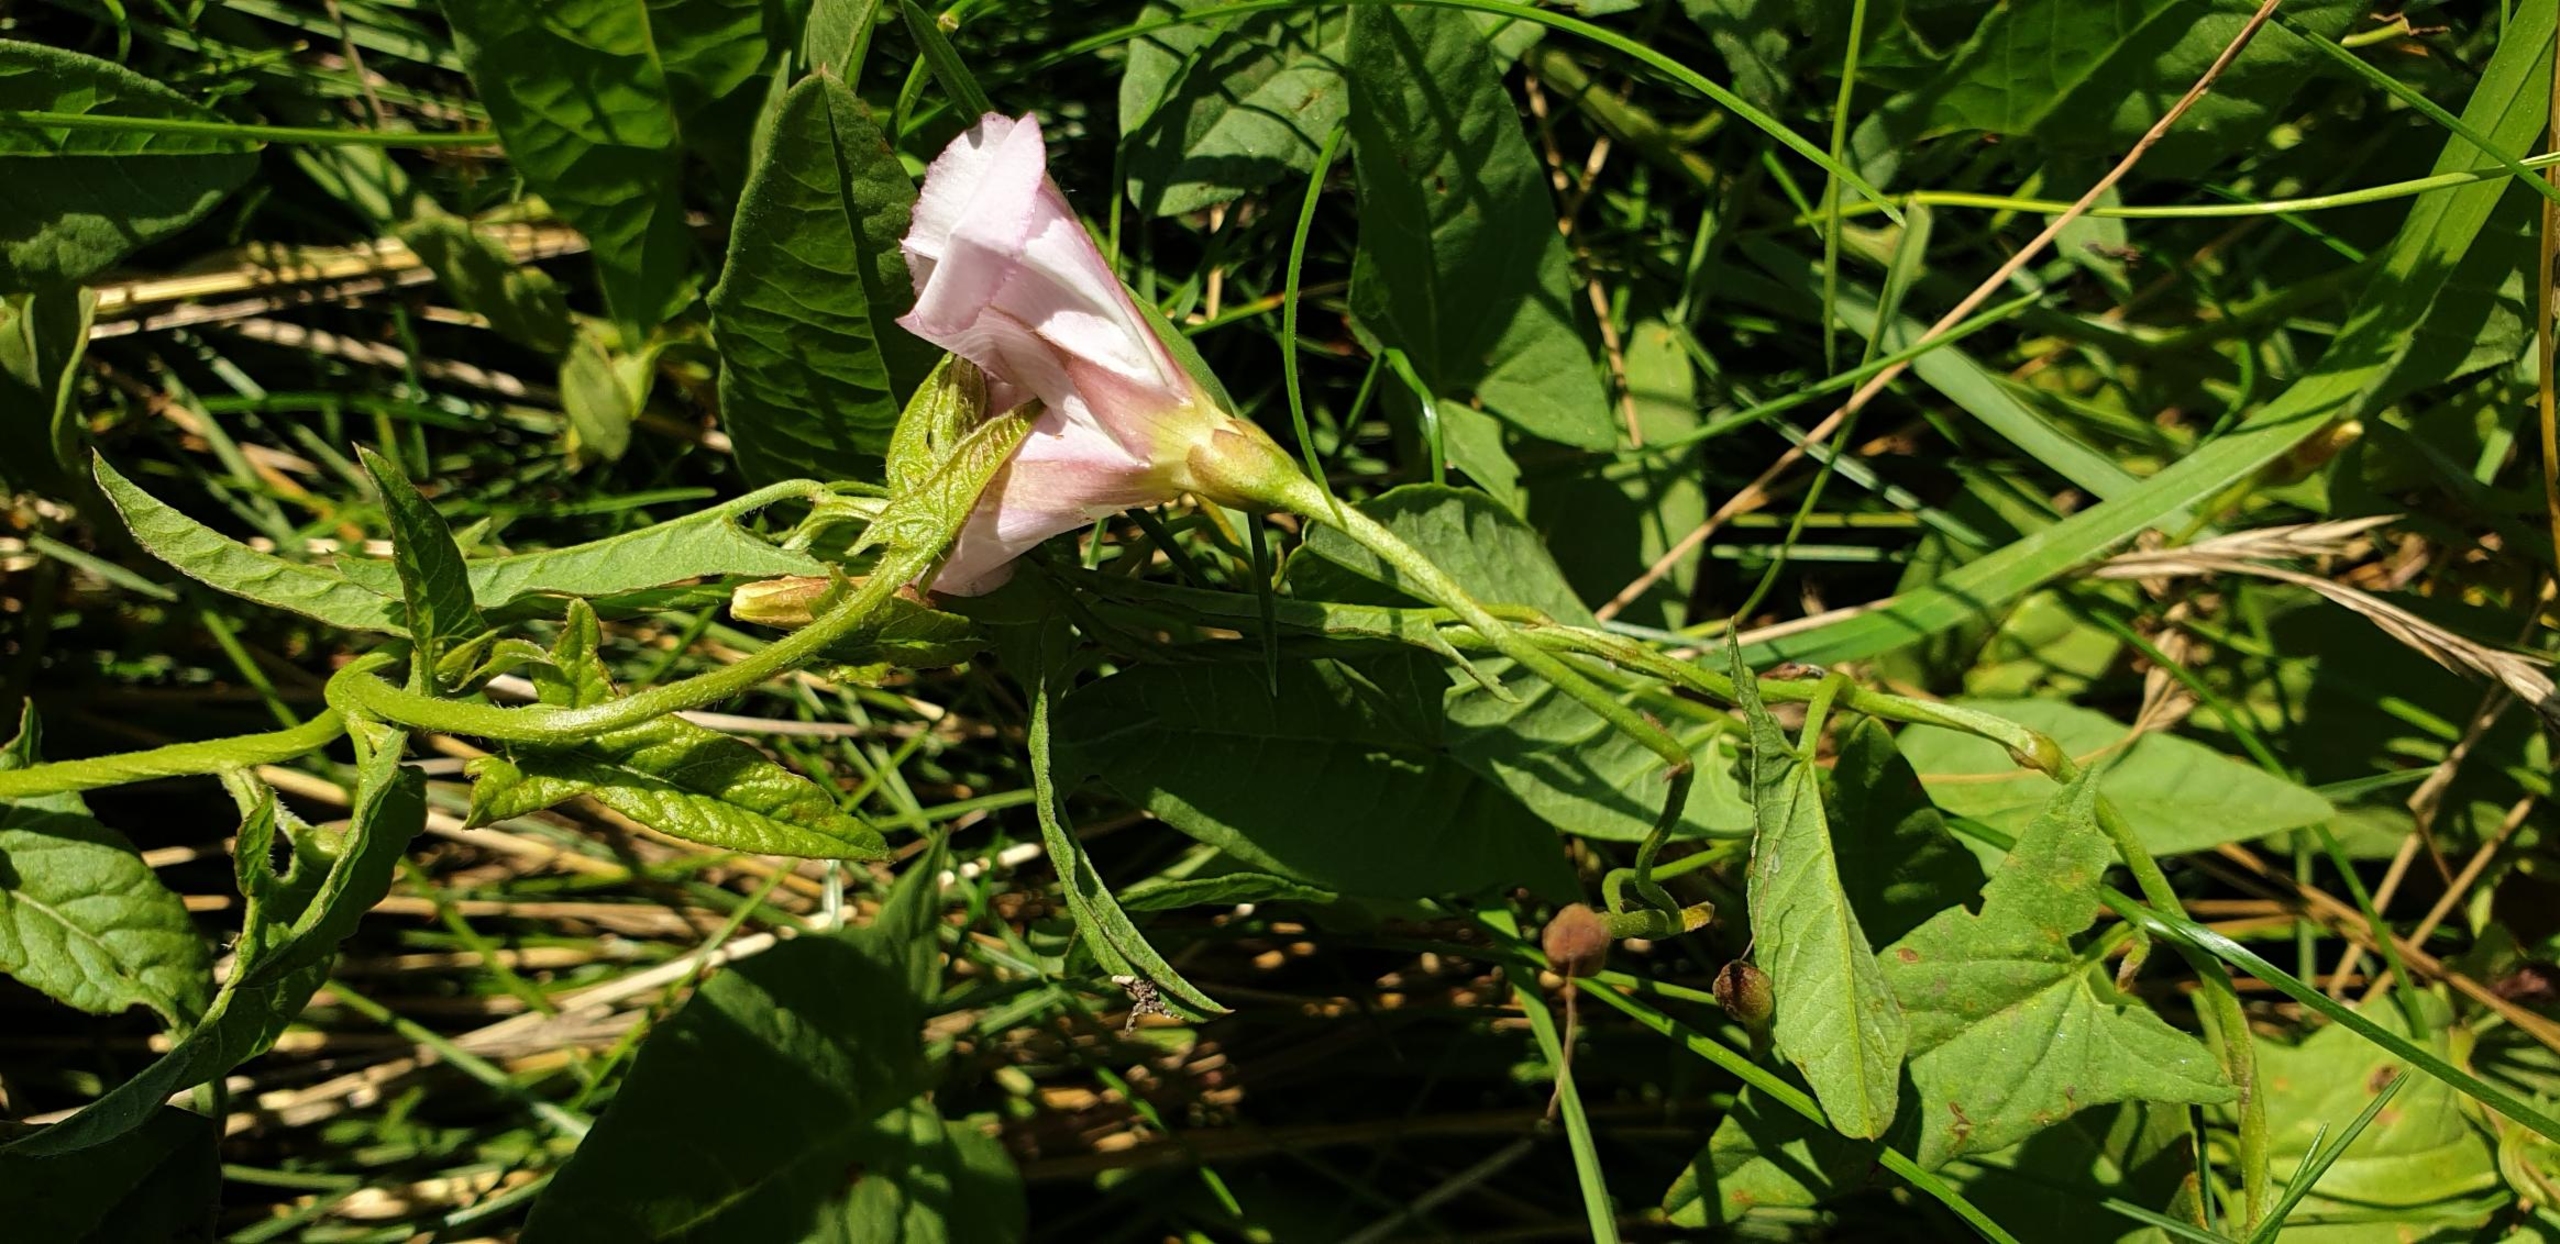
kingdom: Plantae
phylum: Tracheophyta
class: Magnoliopsida
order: Solanales
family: Convolvulaceae
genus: Convolvulus
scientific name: Convolvulus arvensis
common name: Ager-snerle
